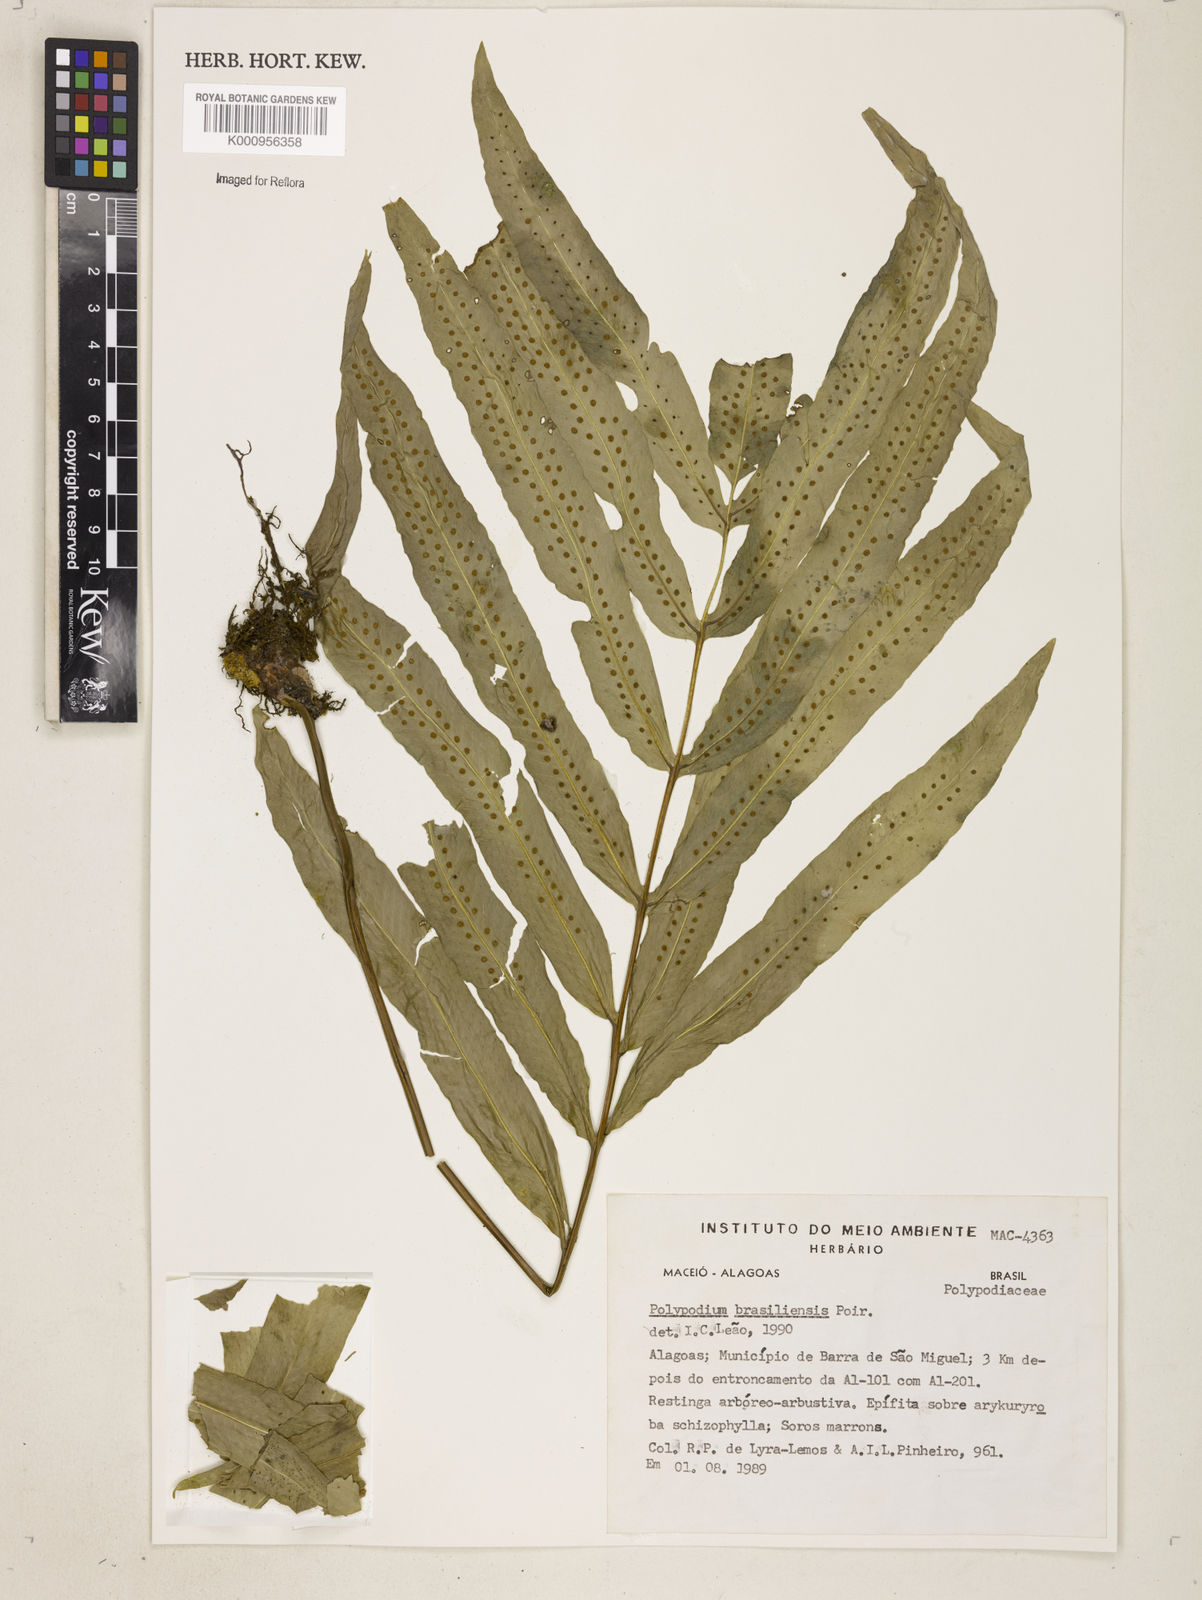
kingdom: Plantae
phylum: Tracheophyta
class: Polypodiopsida
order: Polypodiales
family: Polypodiaceae
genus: Serpocaulon
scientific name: Serpocaulon triseriale
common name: Angle-vein fern
